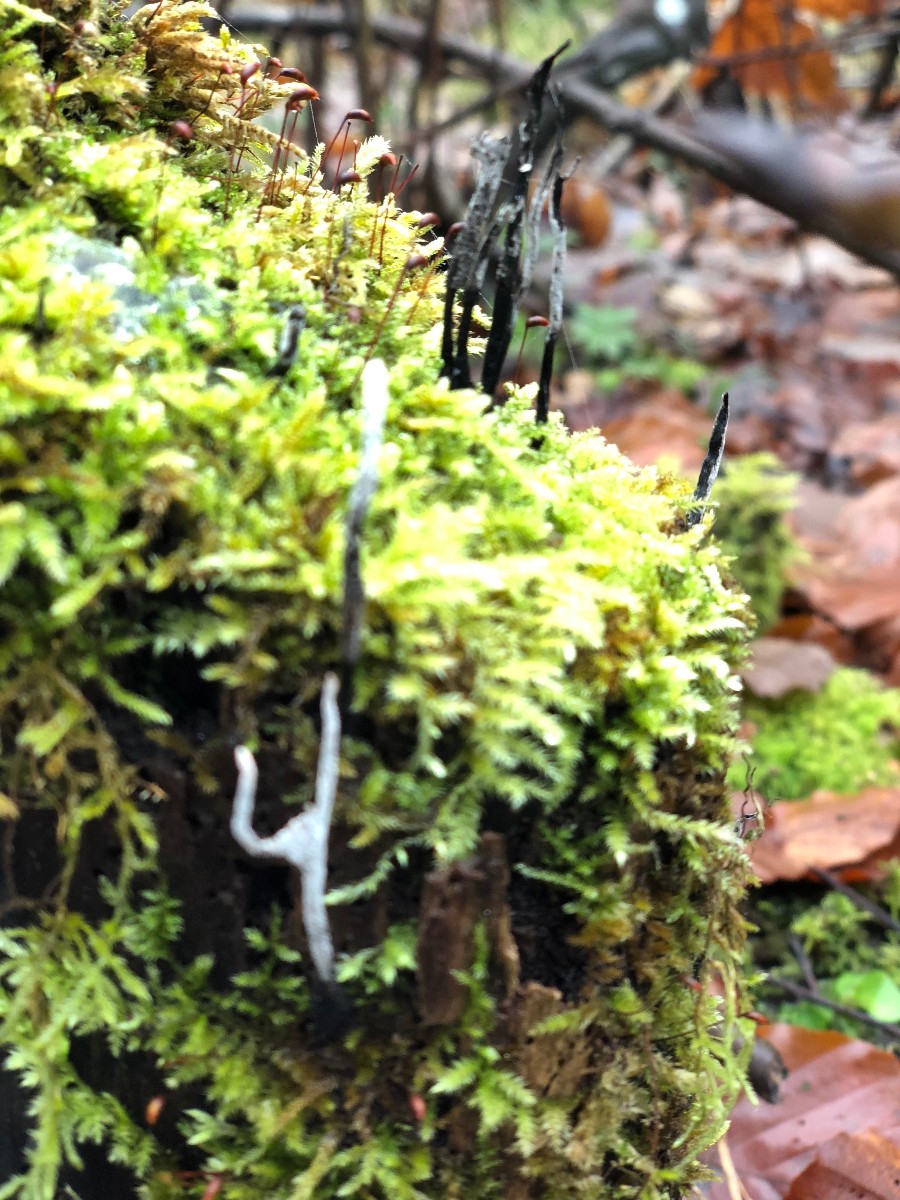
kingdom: Fungi
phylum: Ascomycota
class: Sordariomycetes
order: Xylariales
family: Xylariaceae
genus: Xylaria
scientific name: Xylaria hypoxylon
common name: grenet stødsvamp
